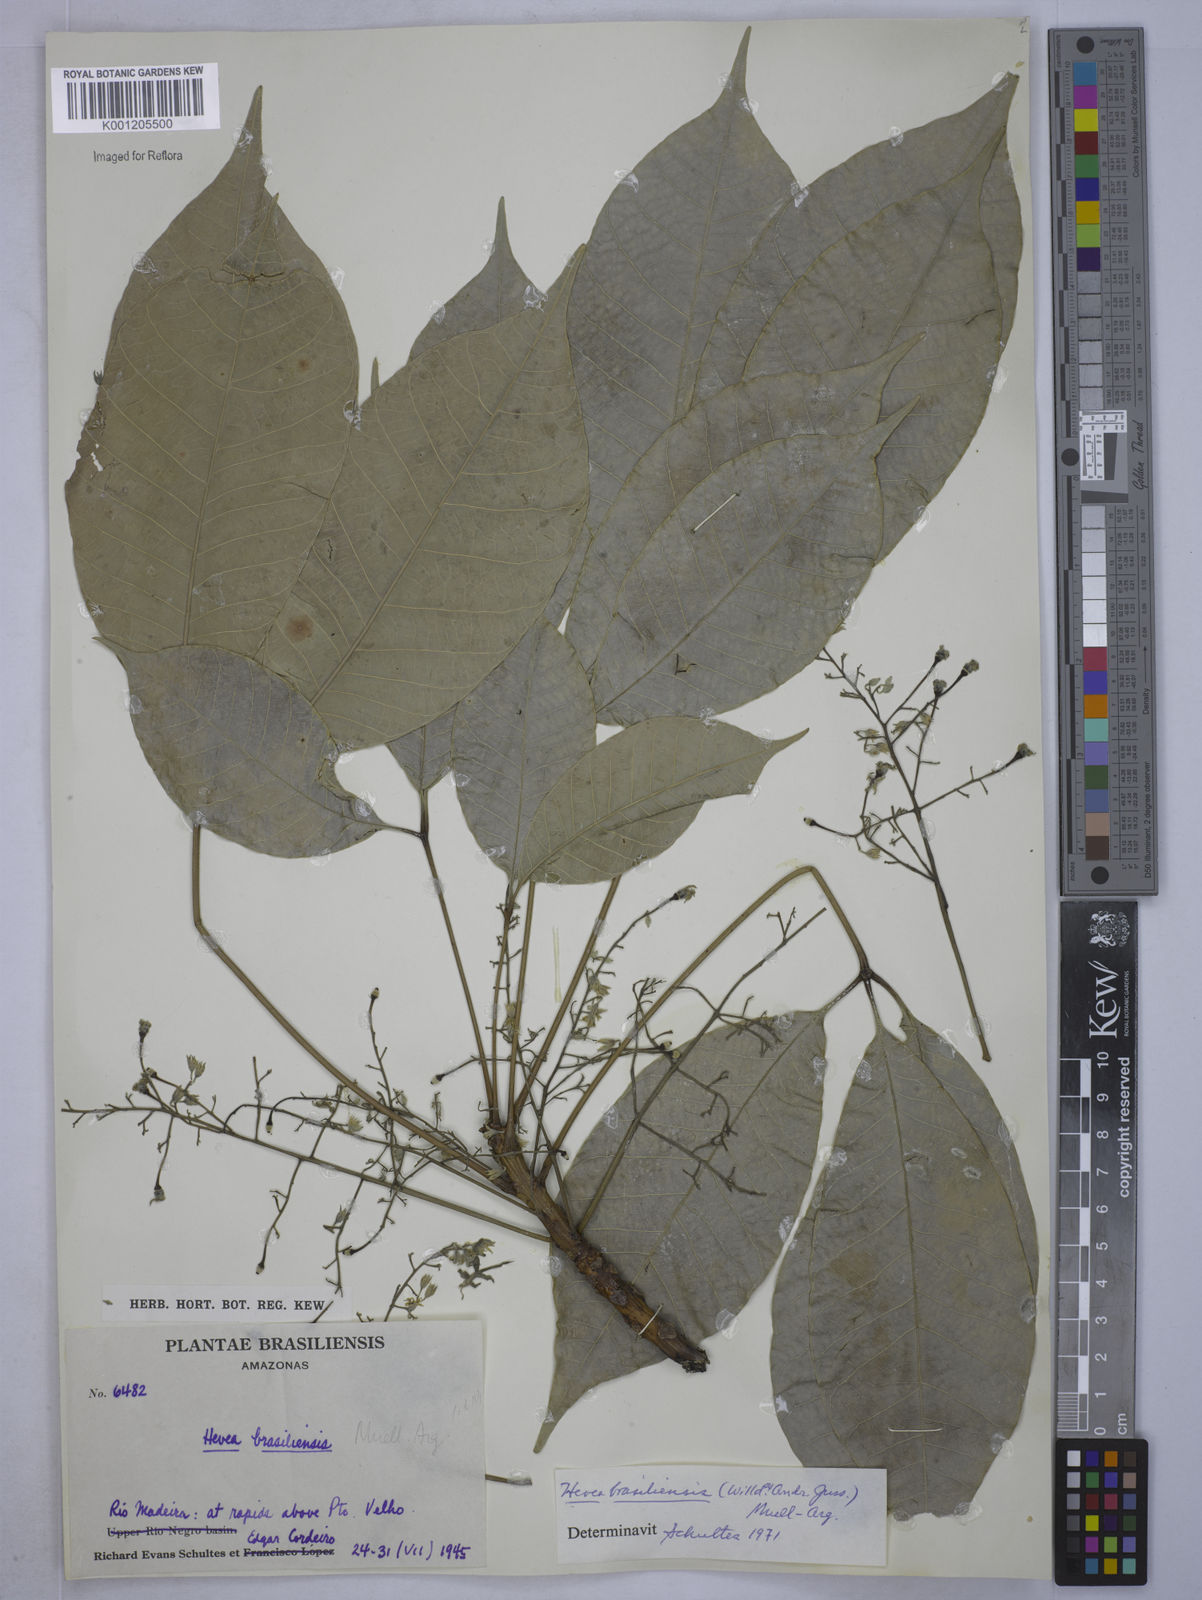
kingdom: Plantae
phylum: Tracheophyta
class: Magnoliopsida
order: Malpighiales
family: Euphorbiaceae
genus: Hevea
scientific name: Hevea
